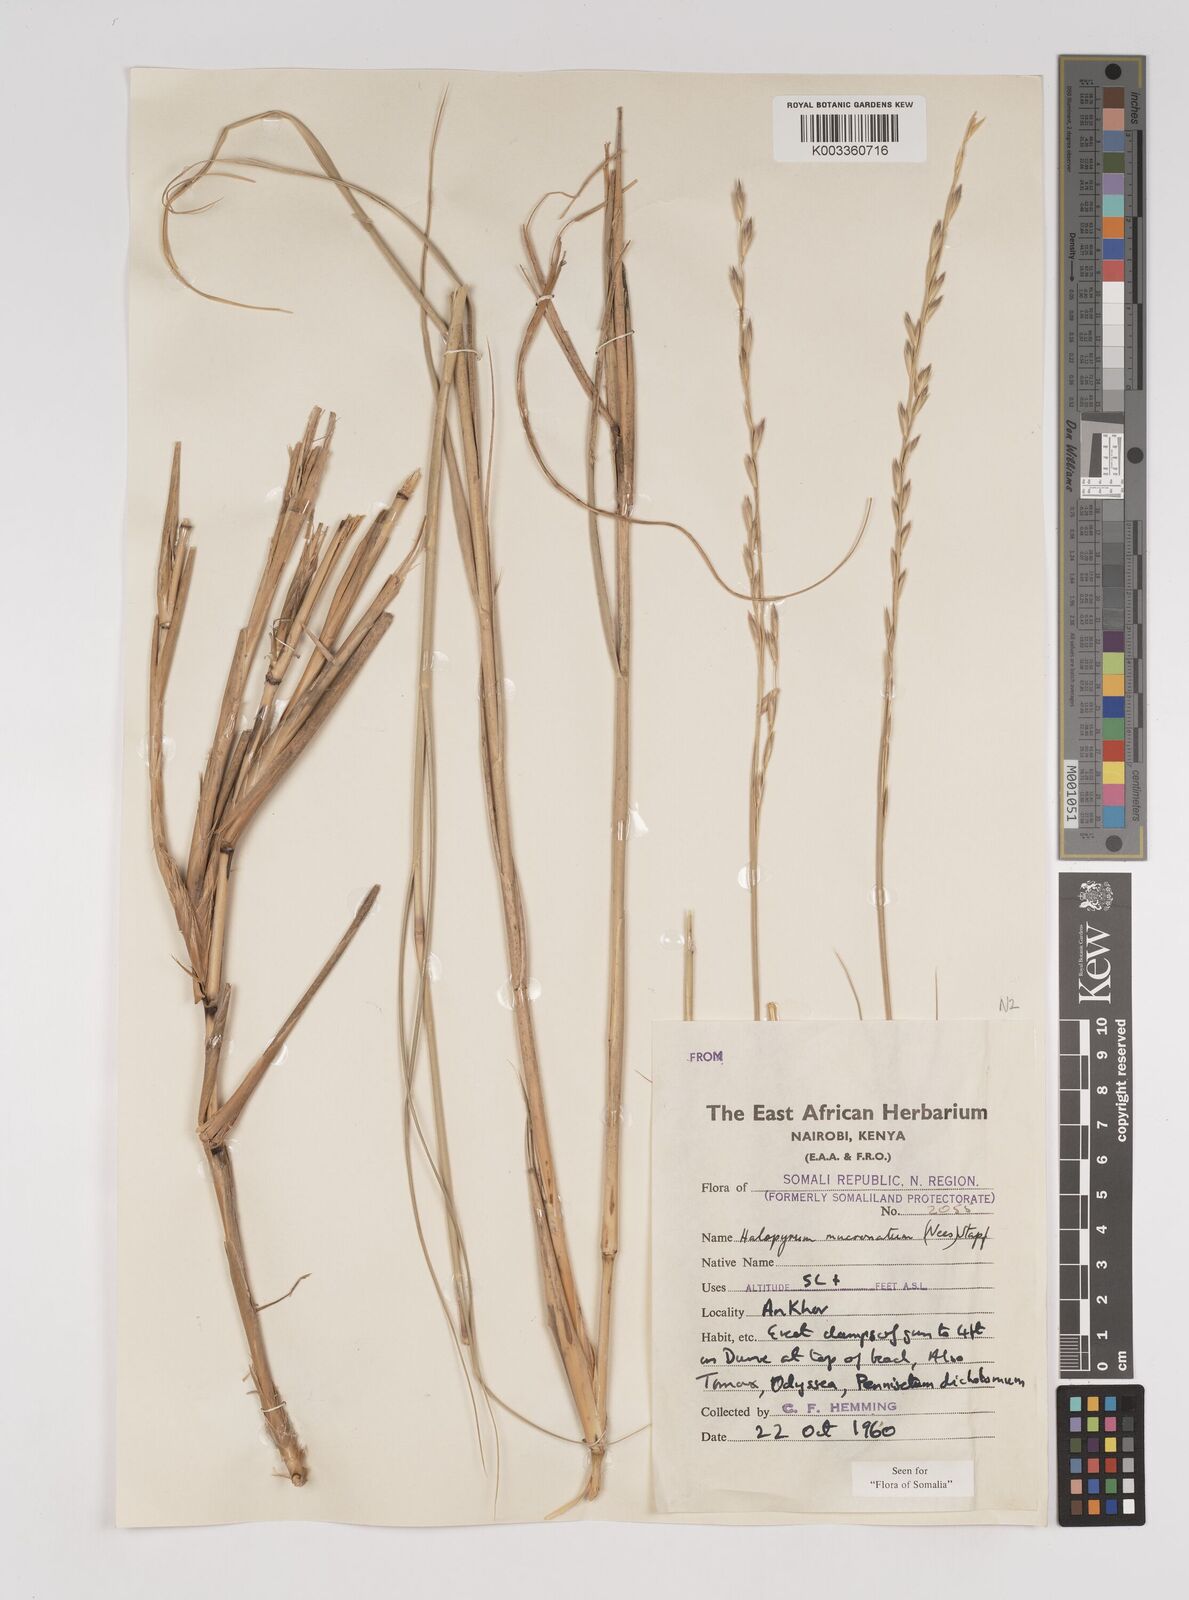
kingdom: Plantae
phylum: Tracheophyta
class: Liliopsida
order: Poales
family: Poaceae
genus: Halopyrum
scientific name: Halopyrum mucronatum
